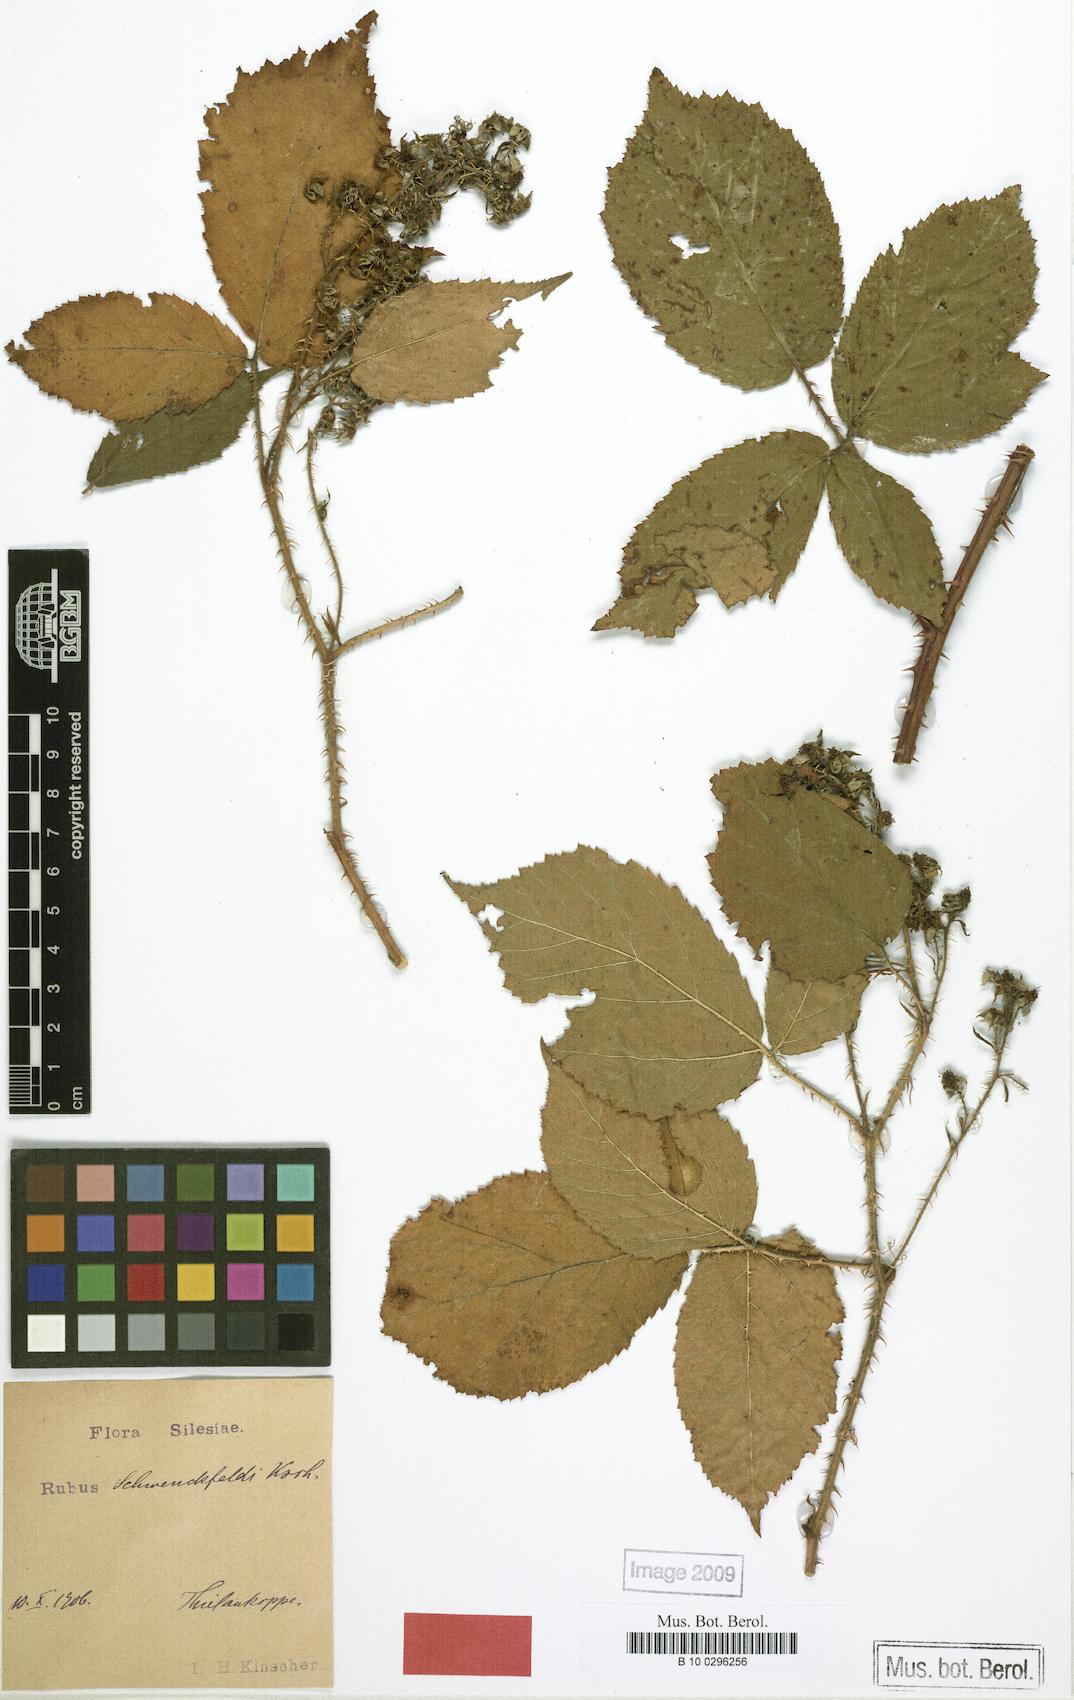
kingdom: Plantae
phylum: Tracheophyta
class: Magnoliopsida
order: Rosales
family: Rosaceae
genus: Rubus
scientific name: Rubus cimbricus
